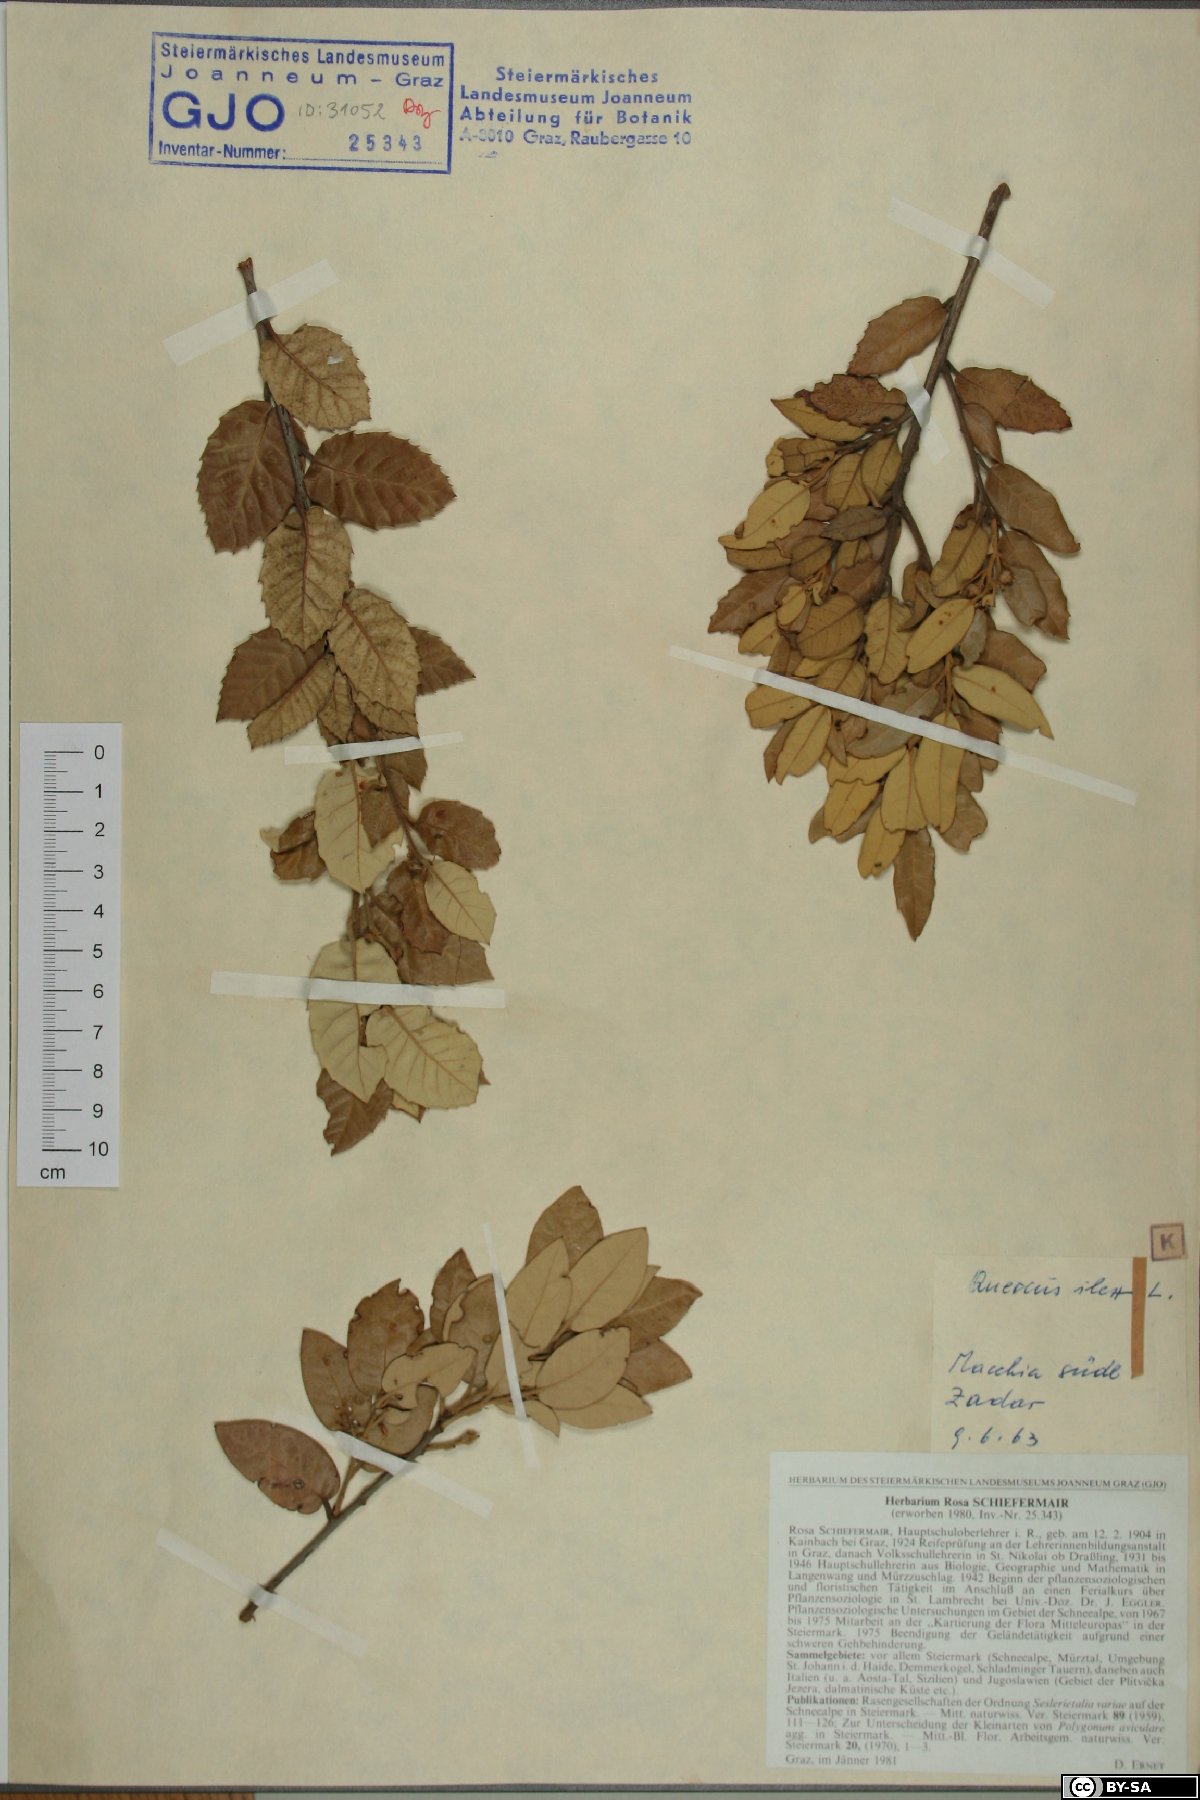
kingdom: Plantae
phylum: Tracheophyta
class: Magnoliopsida
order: Fagales
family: Fagaceae
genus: Quercus
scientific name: Quercus ilex
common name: Evergreen oak
